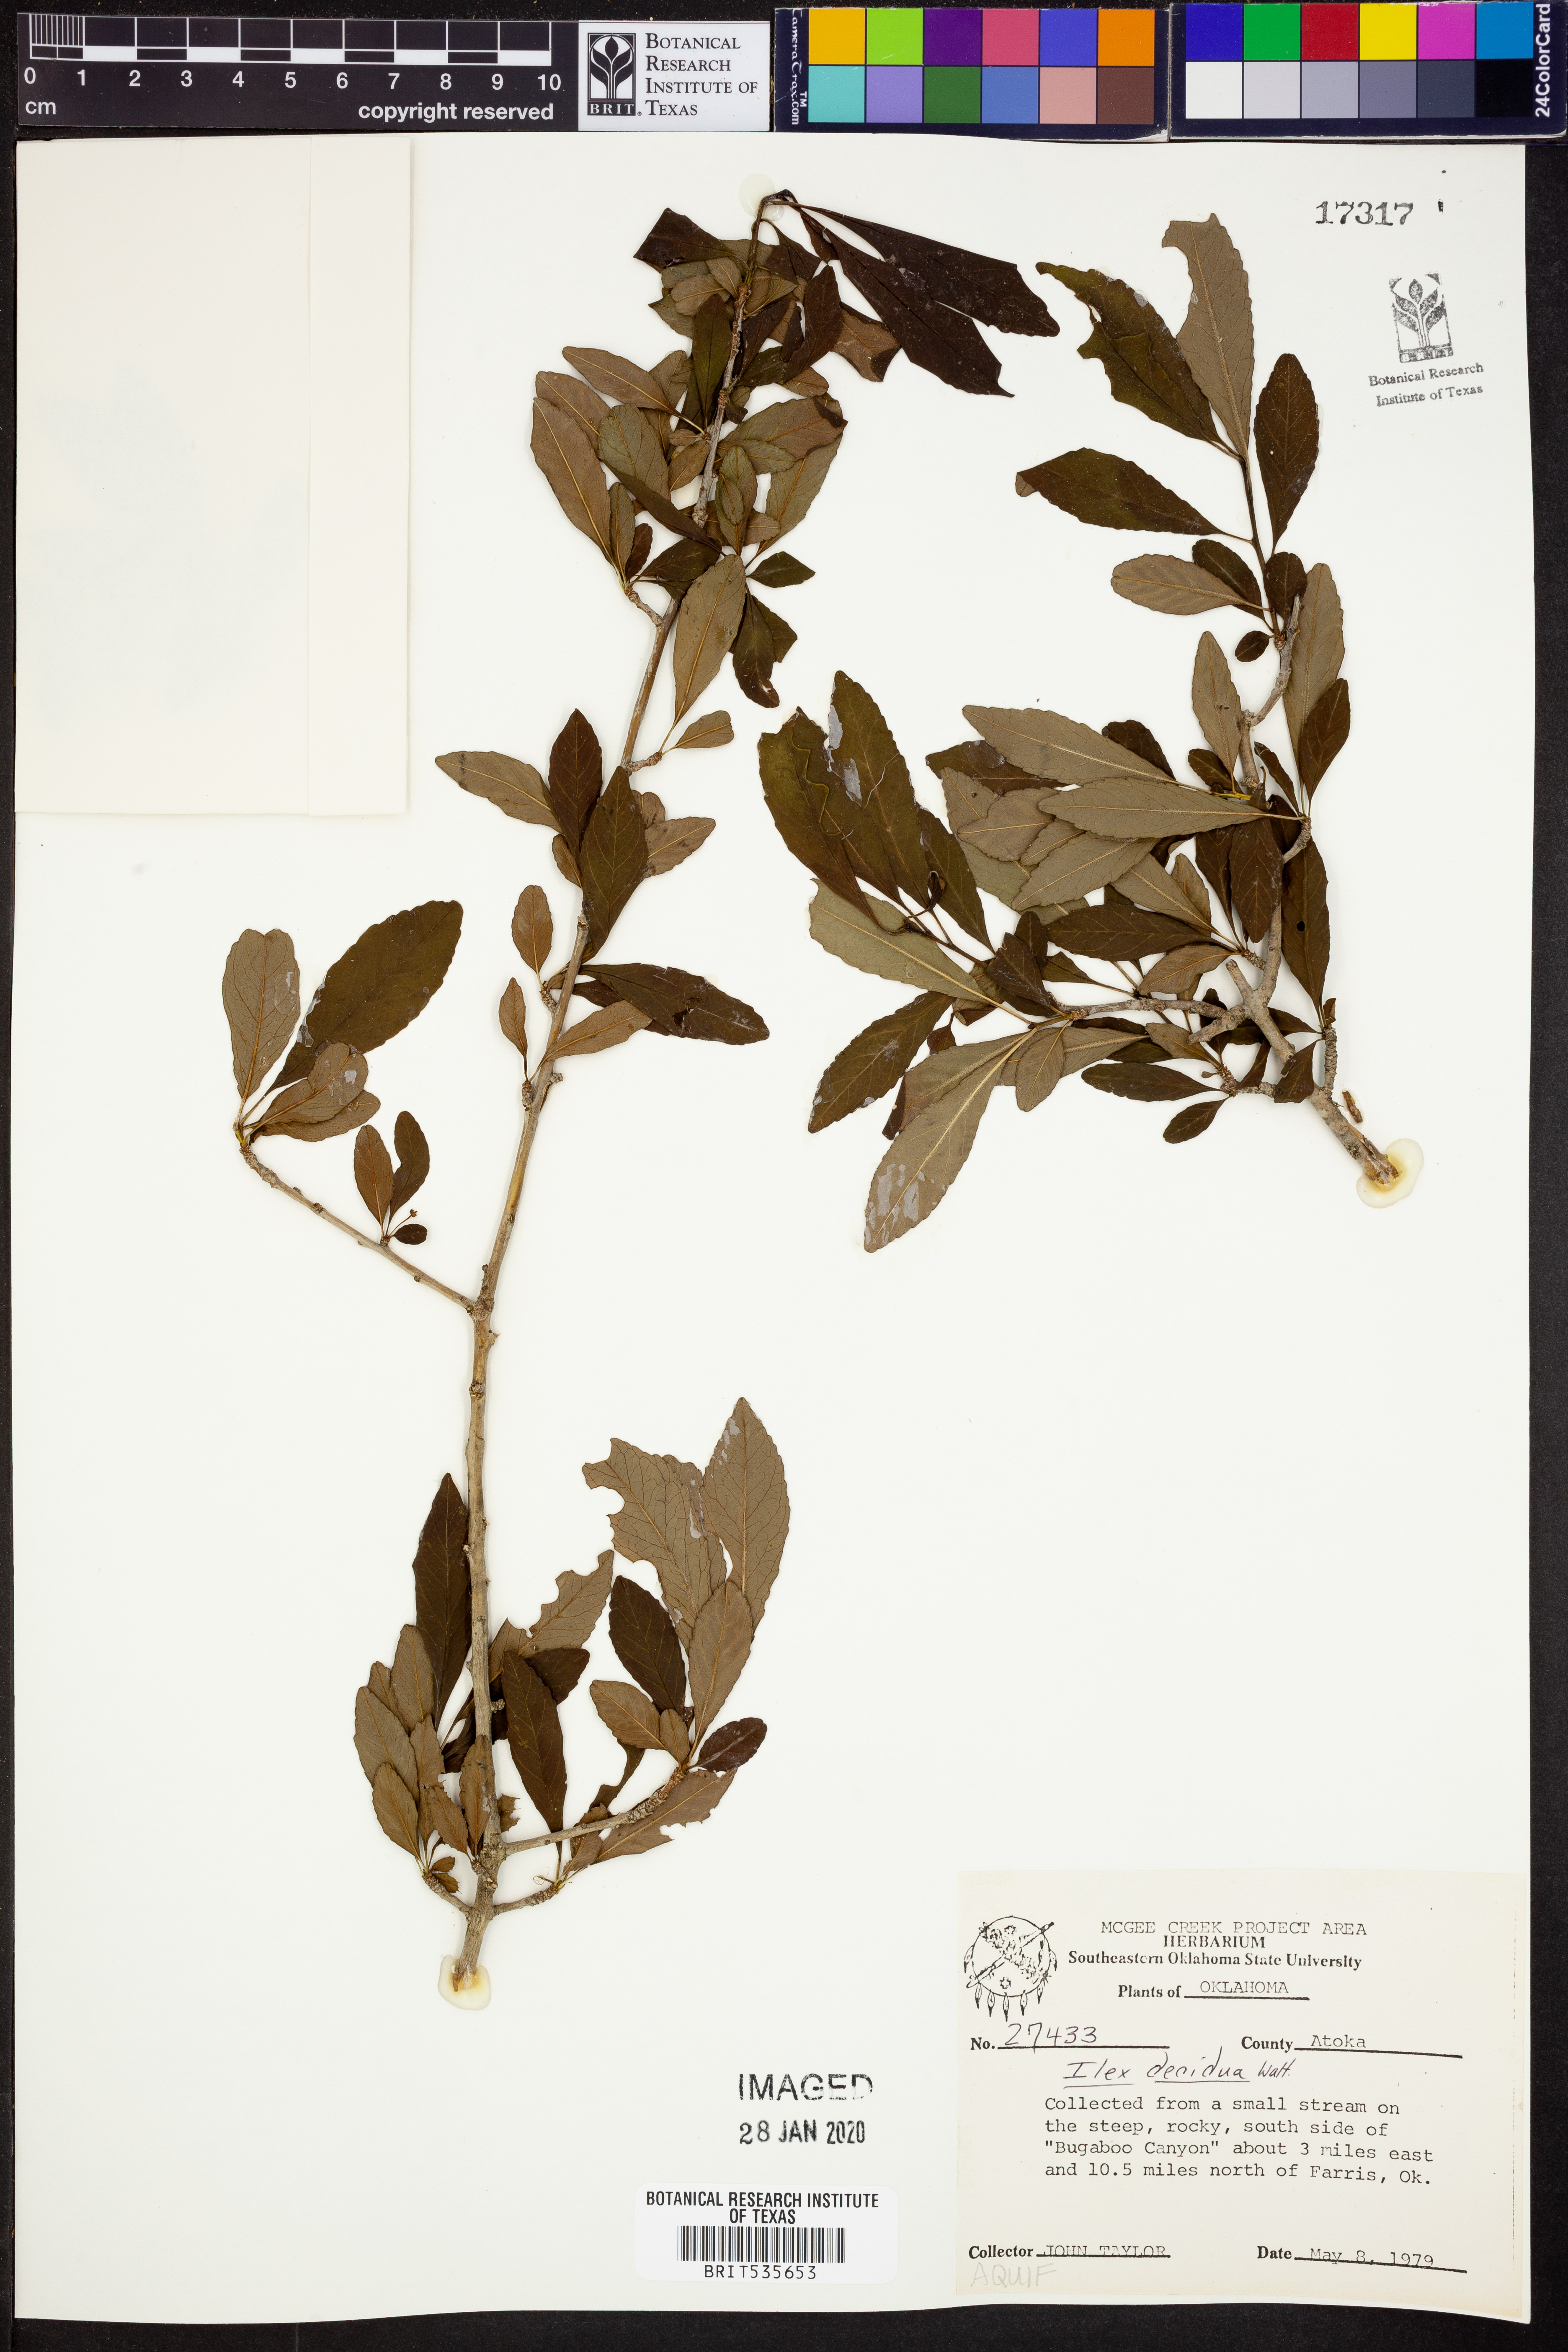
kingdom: Plantae
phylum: Tracheophyta
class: Magnoliopsida
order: Aquifoliales
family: Aquifoliaceae
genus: Ilex
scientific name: Ilex decidua
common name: Possum-haw
